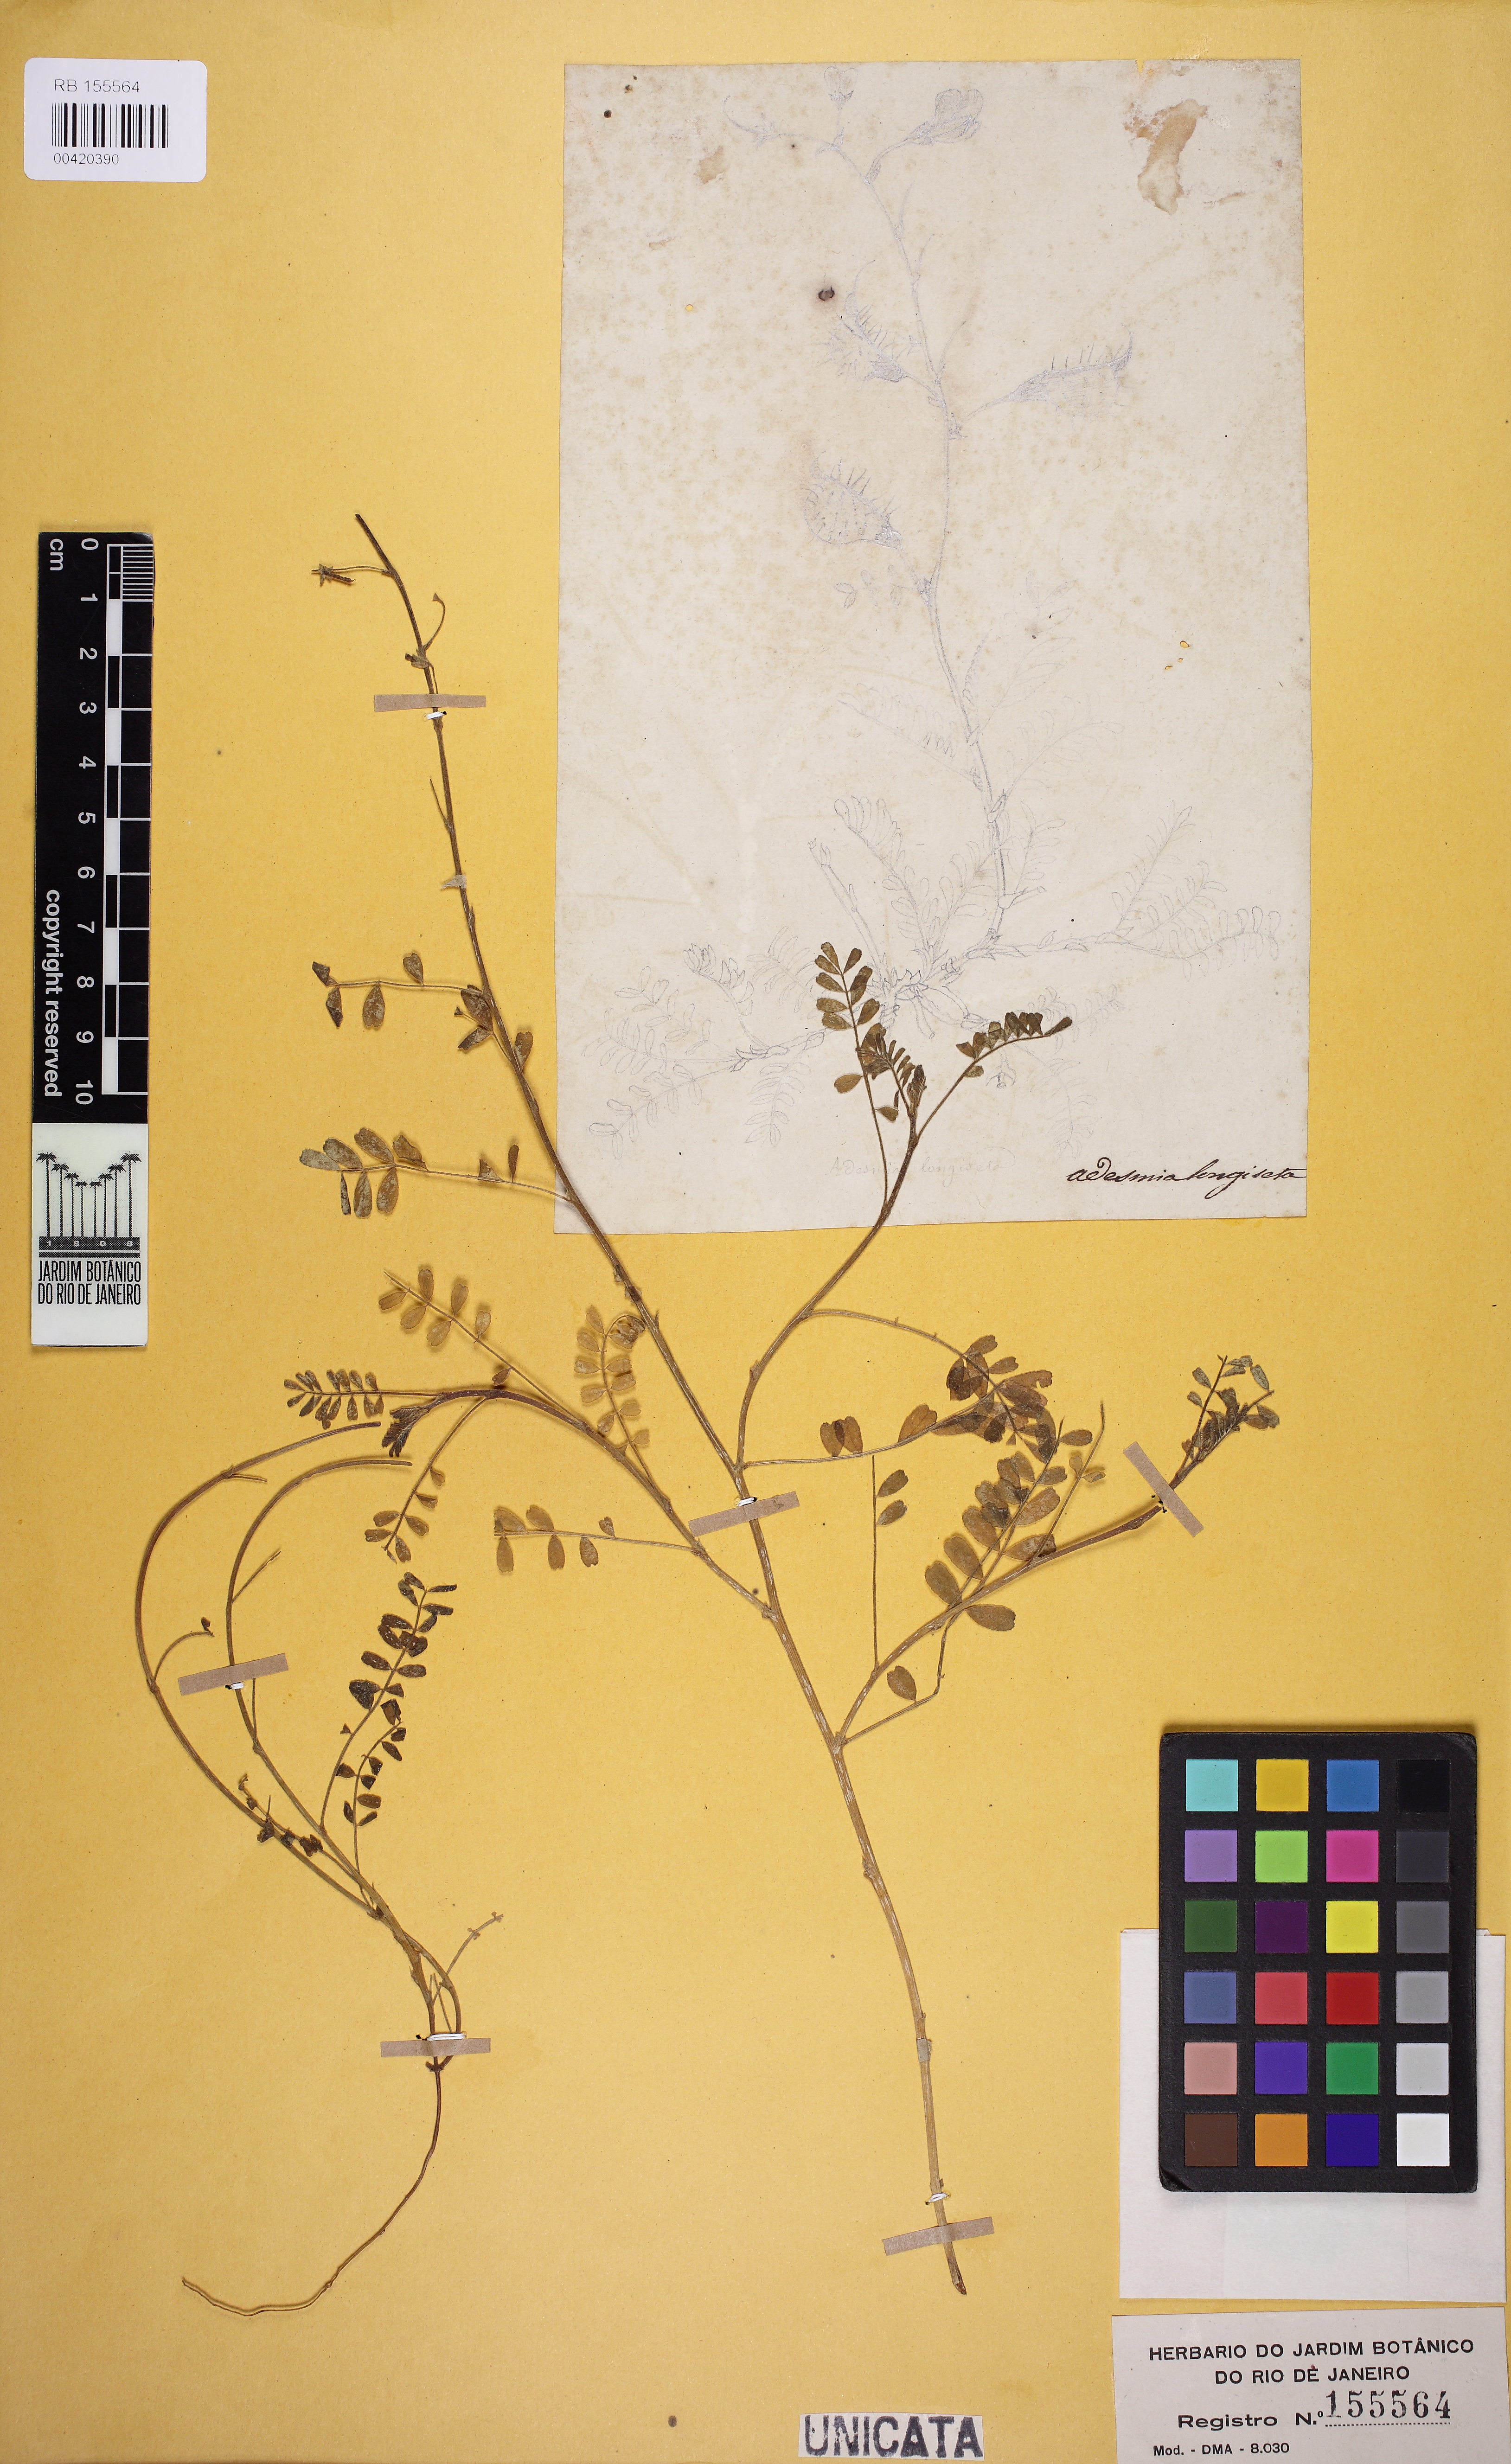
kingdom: Plantae
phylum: Tracheophyta
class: Magnoliopsida
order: Fabales
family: Fabaceae
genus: Adesmia
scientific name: Adesmia exilis
